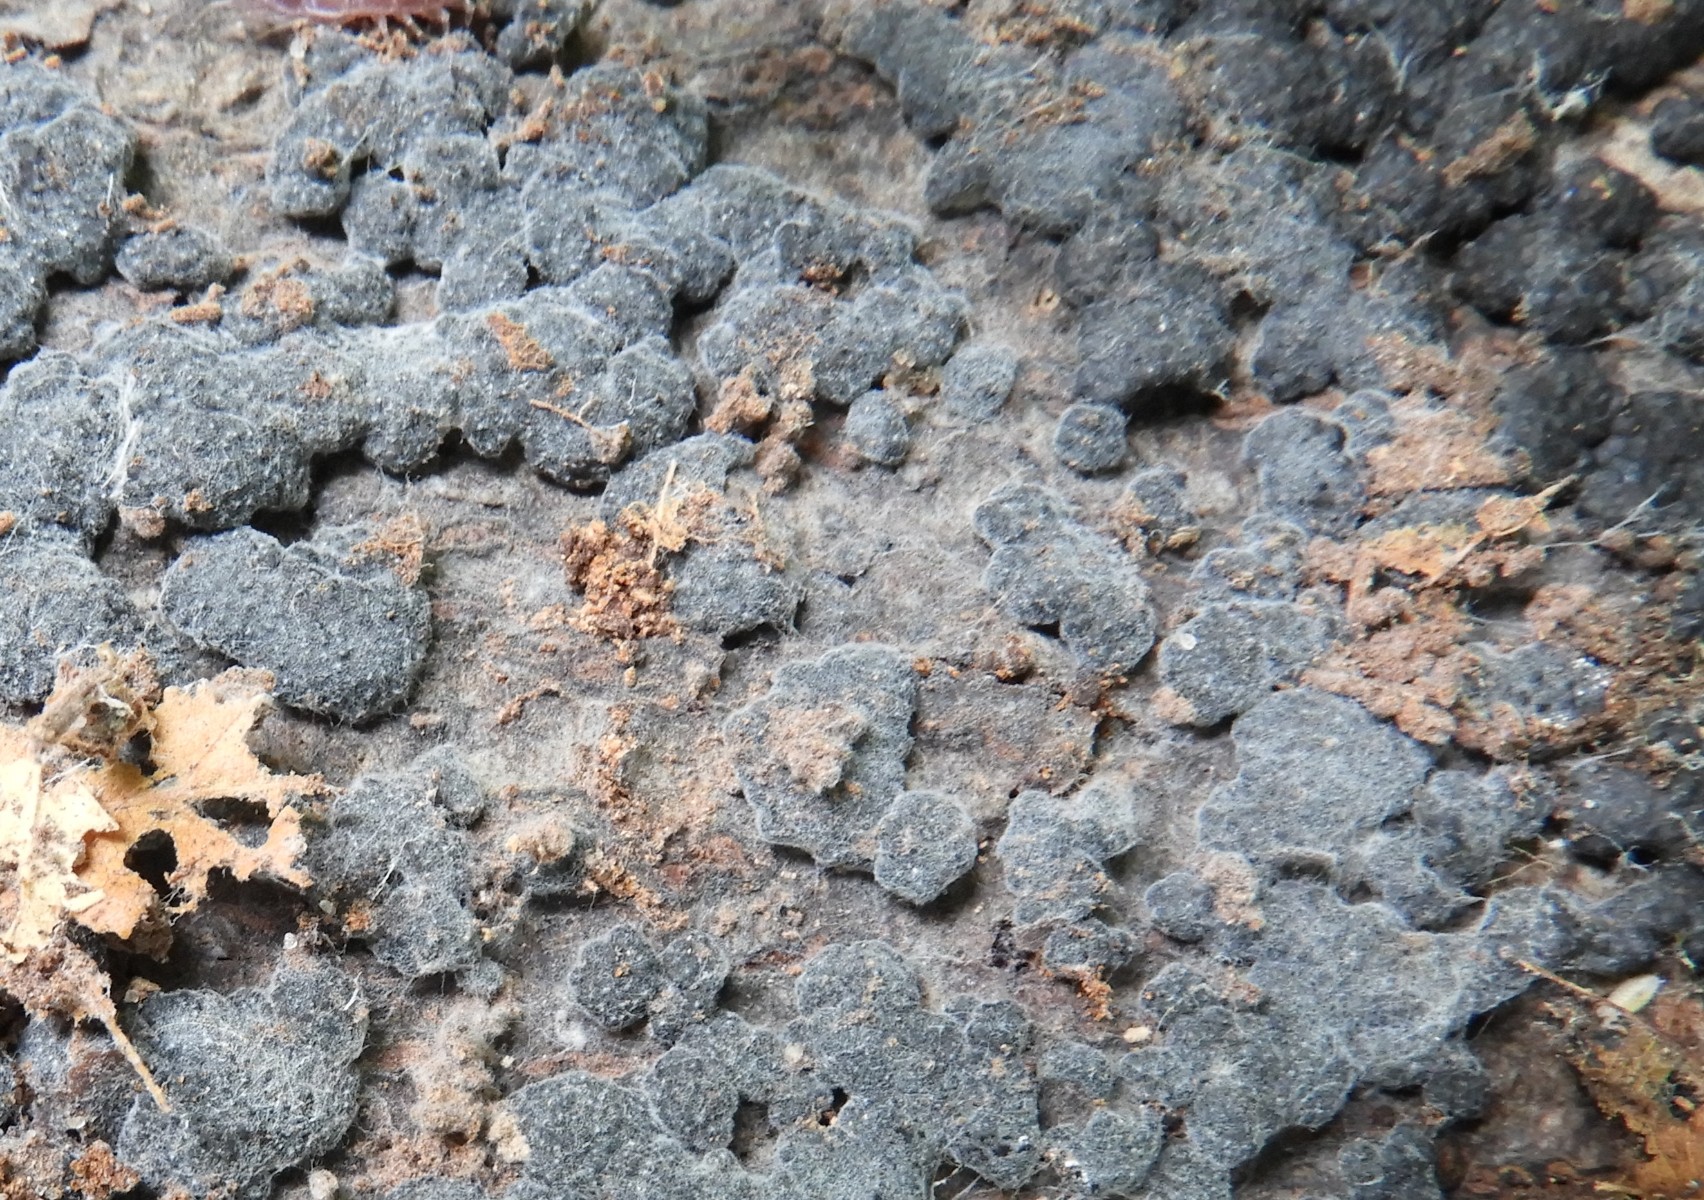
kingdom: Fungi
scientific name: Fungi
